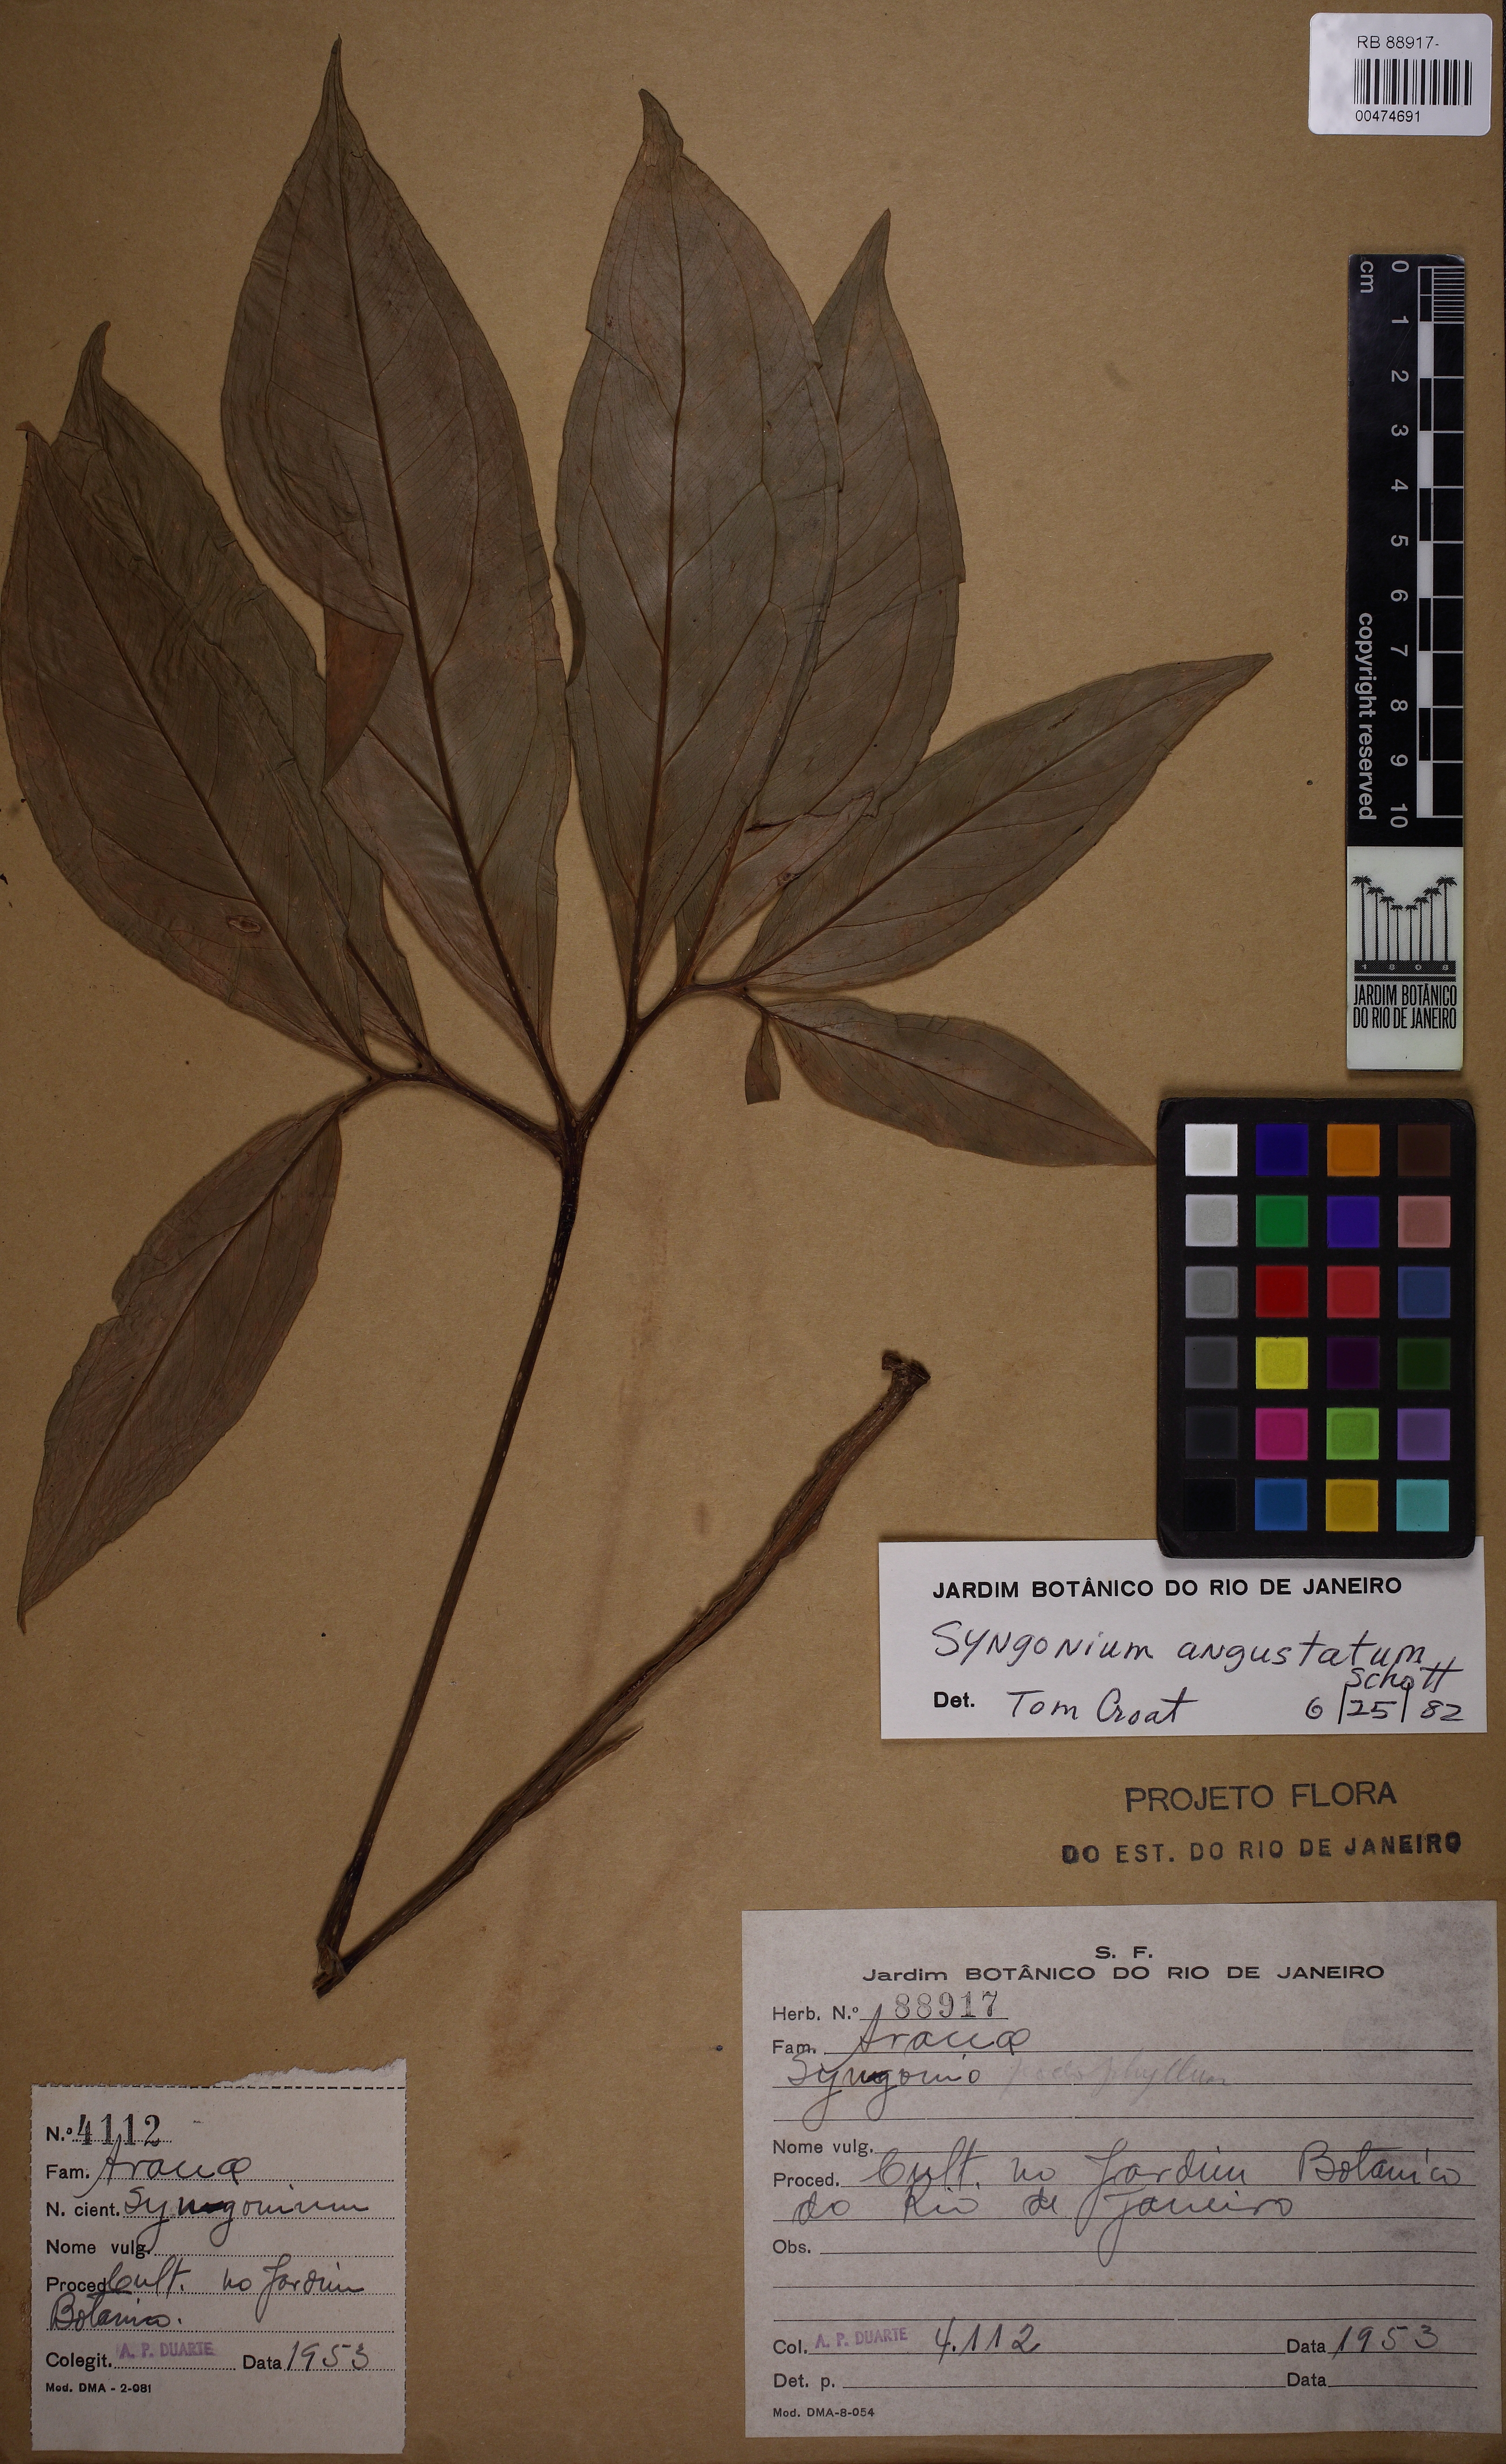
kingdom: Plantae
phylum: Tracheophyta
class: Liliopsida
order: Alismatales
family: Araceae
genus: Syngonium
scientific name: Syngonium angustatum
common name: Fivefingers
